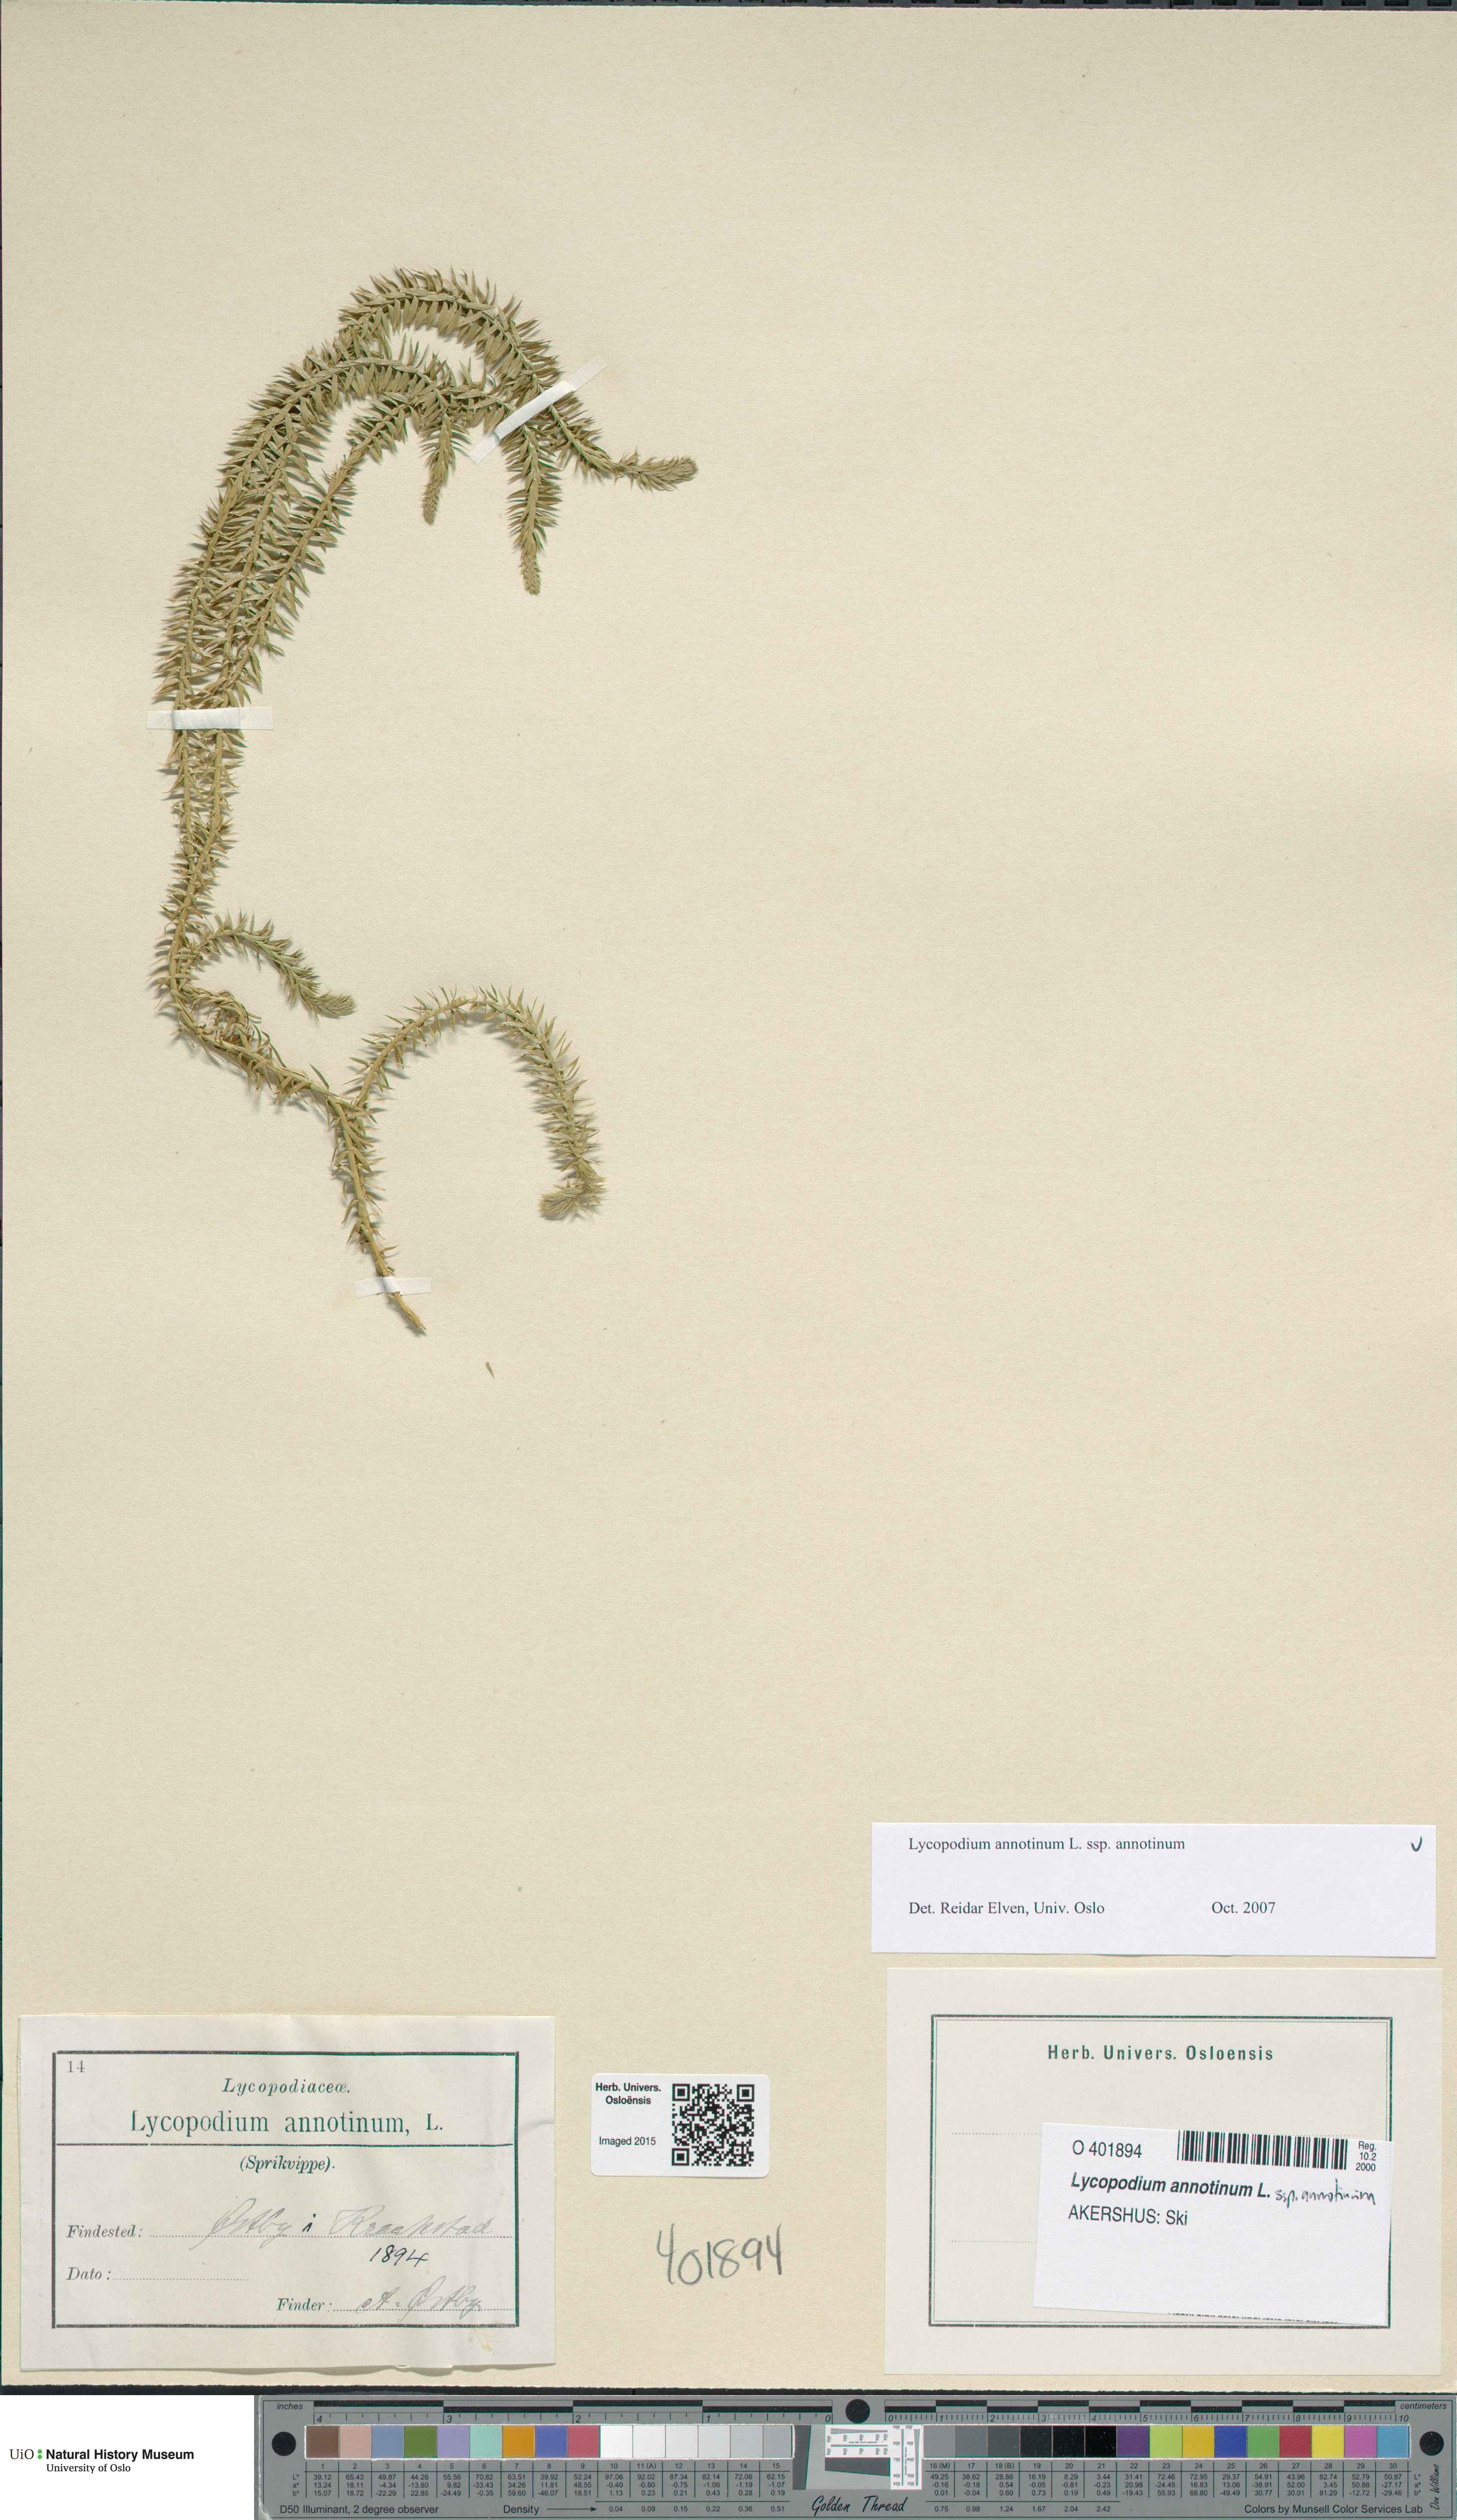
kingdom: Plantae
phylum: Tracheophyta
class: Lycopodiopsida
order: Lycopodiales
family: Lycopodiaceae
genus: Spinulum
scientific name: Spinulum annotinum
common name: Interrupted club-moss
